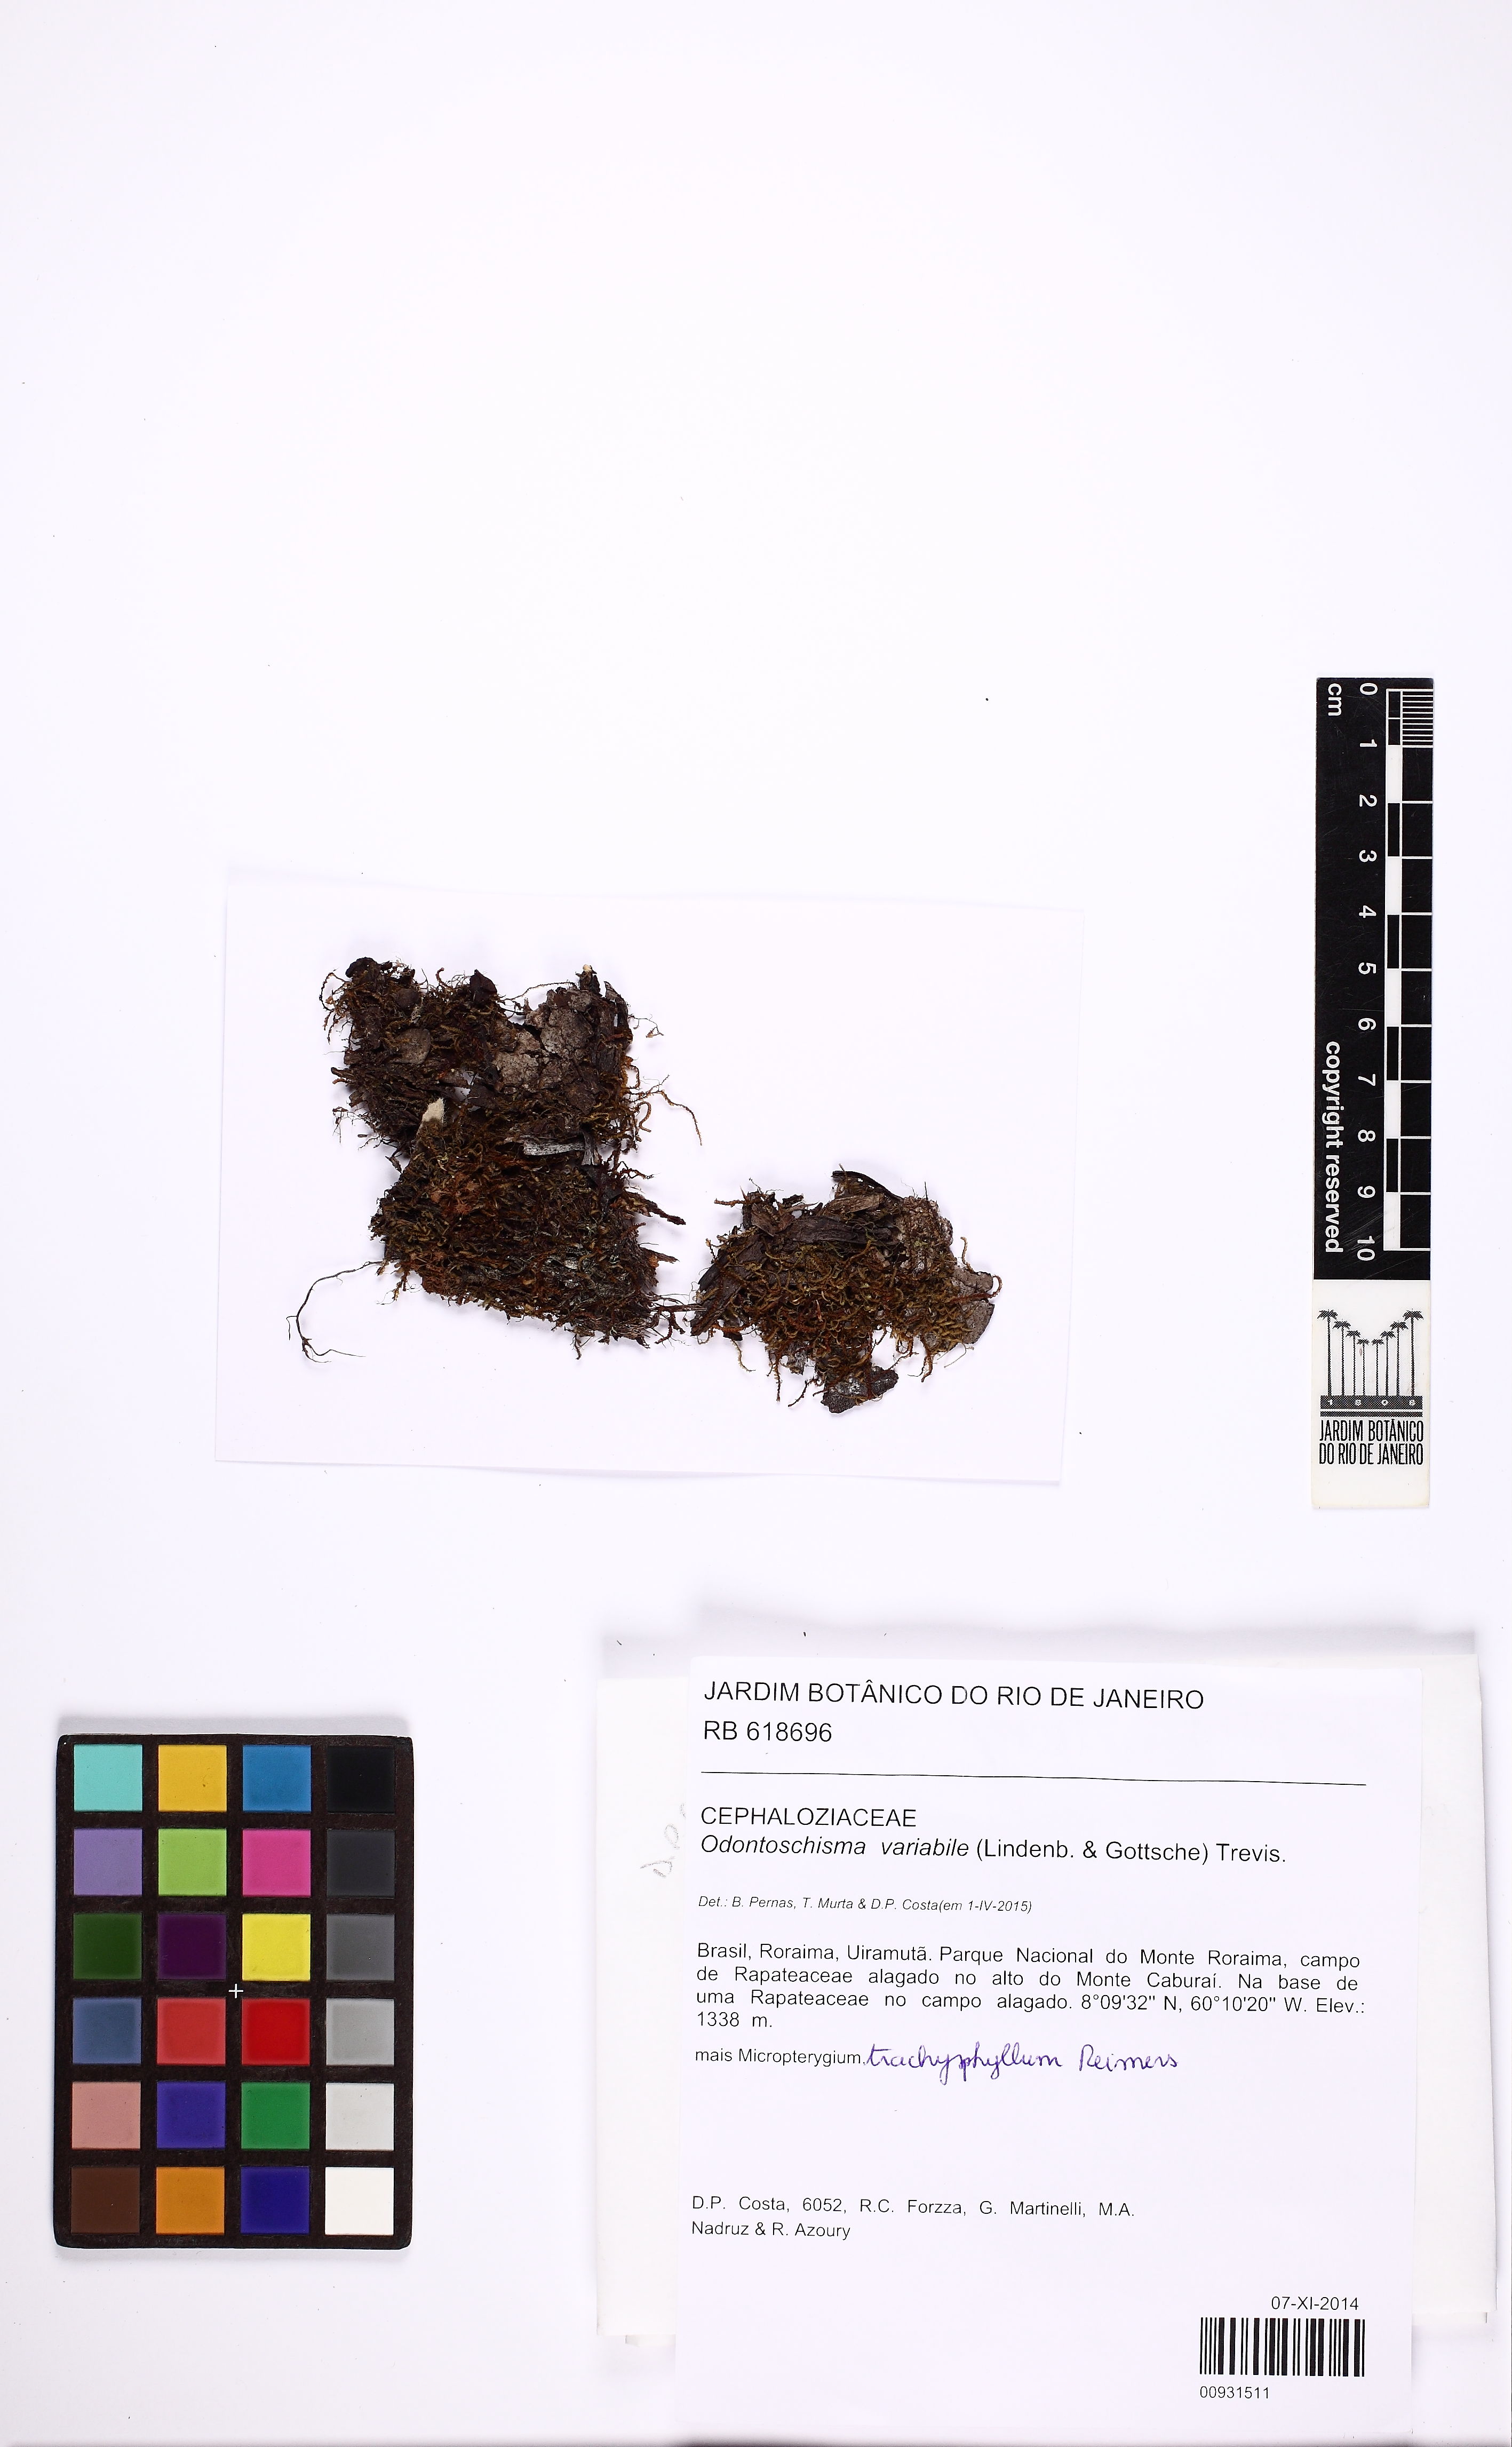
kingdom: Plantae
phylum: Marchantiophyta
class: Jungermanniopsida
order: Jungermanniales
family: Cephaloziaceae
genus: Odontoschisma
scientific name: Odontoschisma variabile
